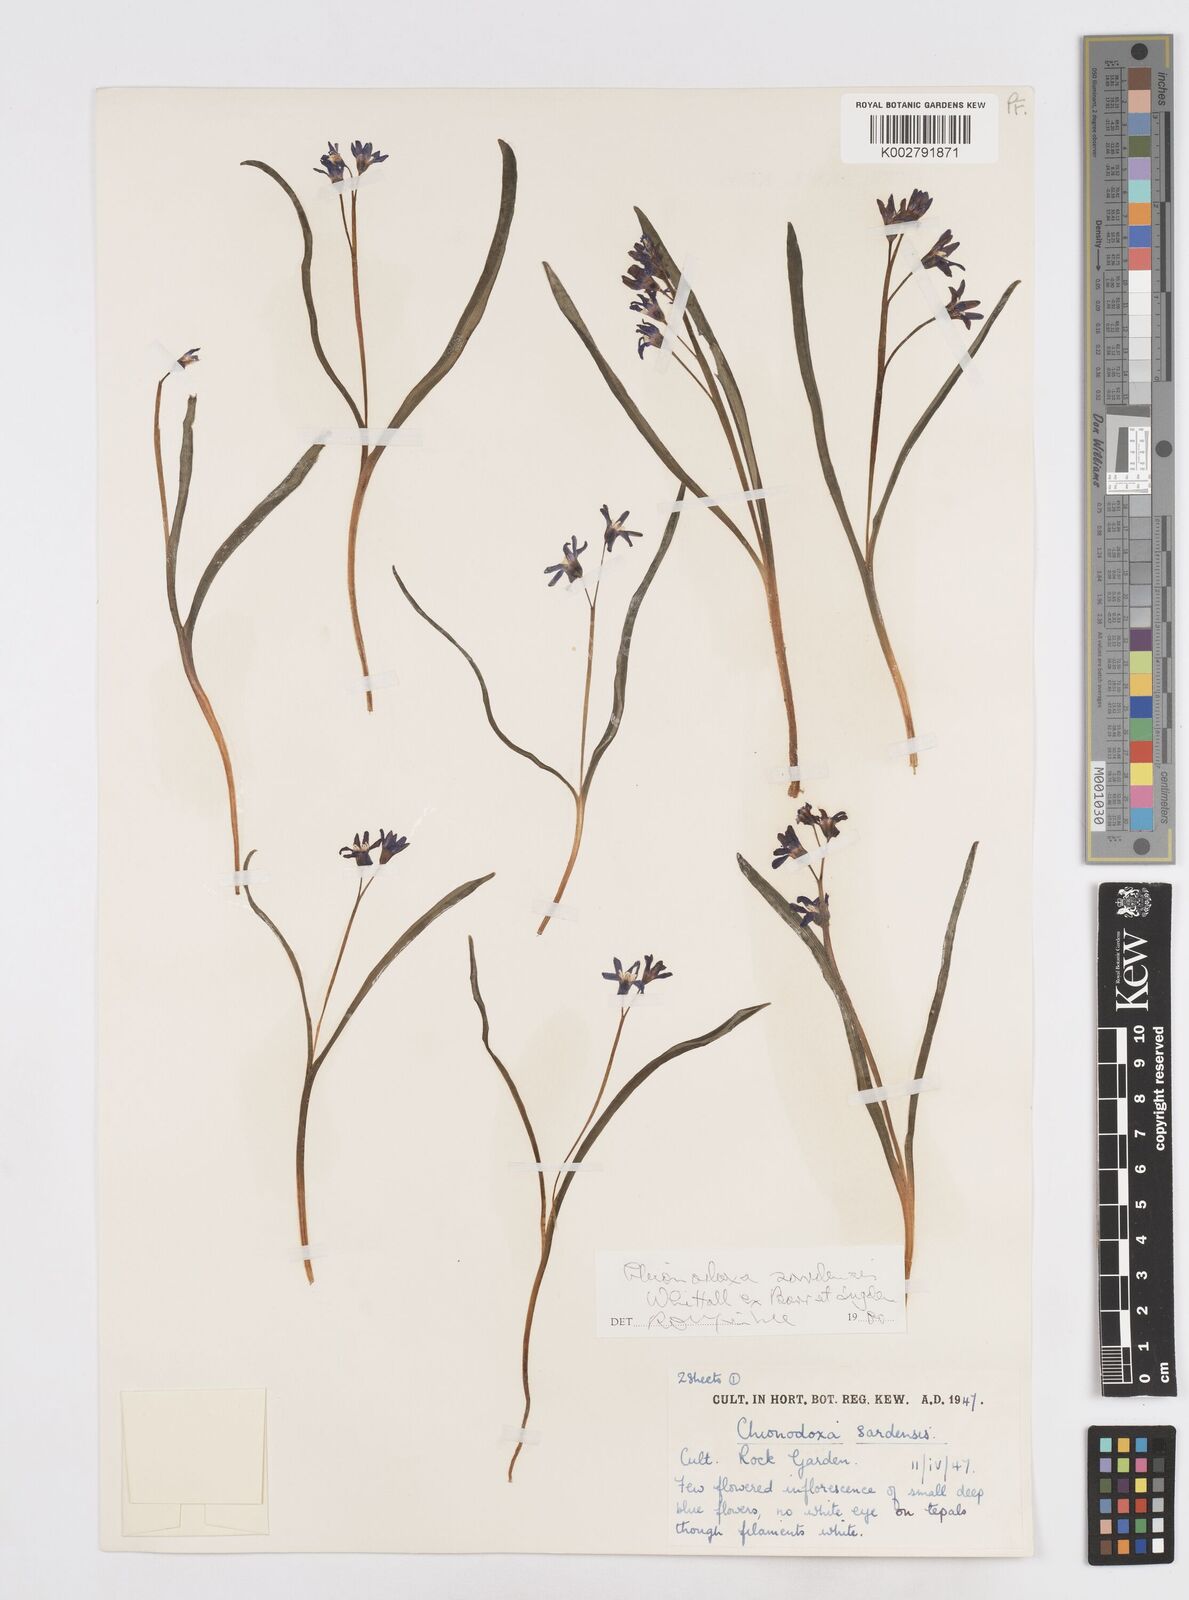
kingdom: Plantae
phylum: Tracheophyta
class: Liliopsida
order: Asparagales
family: Asparagaceae
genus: Scilla
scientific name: Scilla sardensis
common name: Lesser glory-of-the-snow
